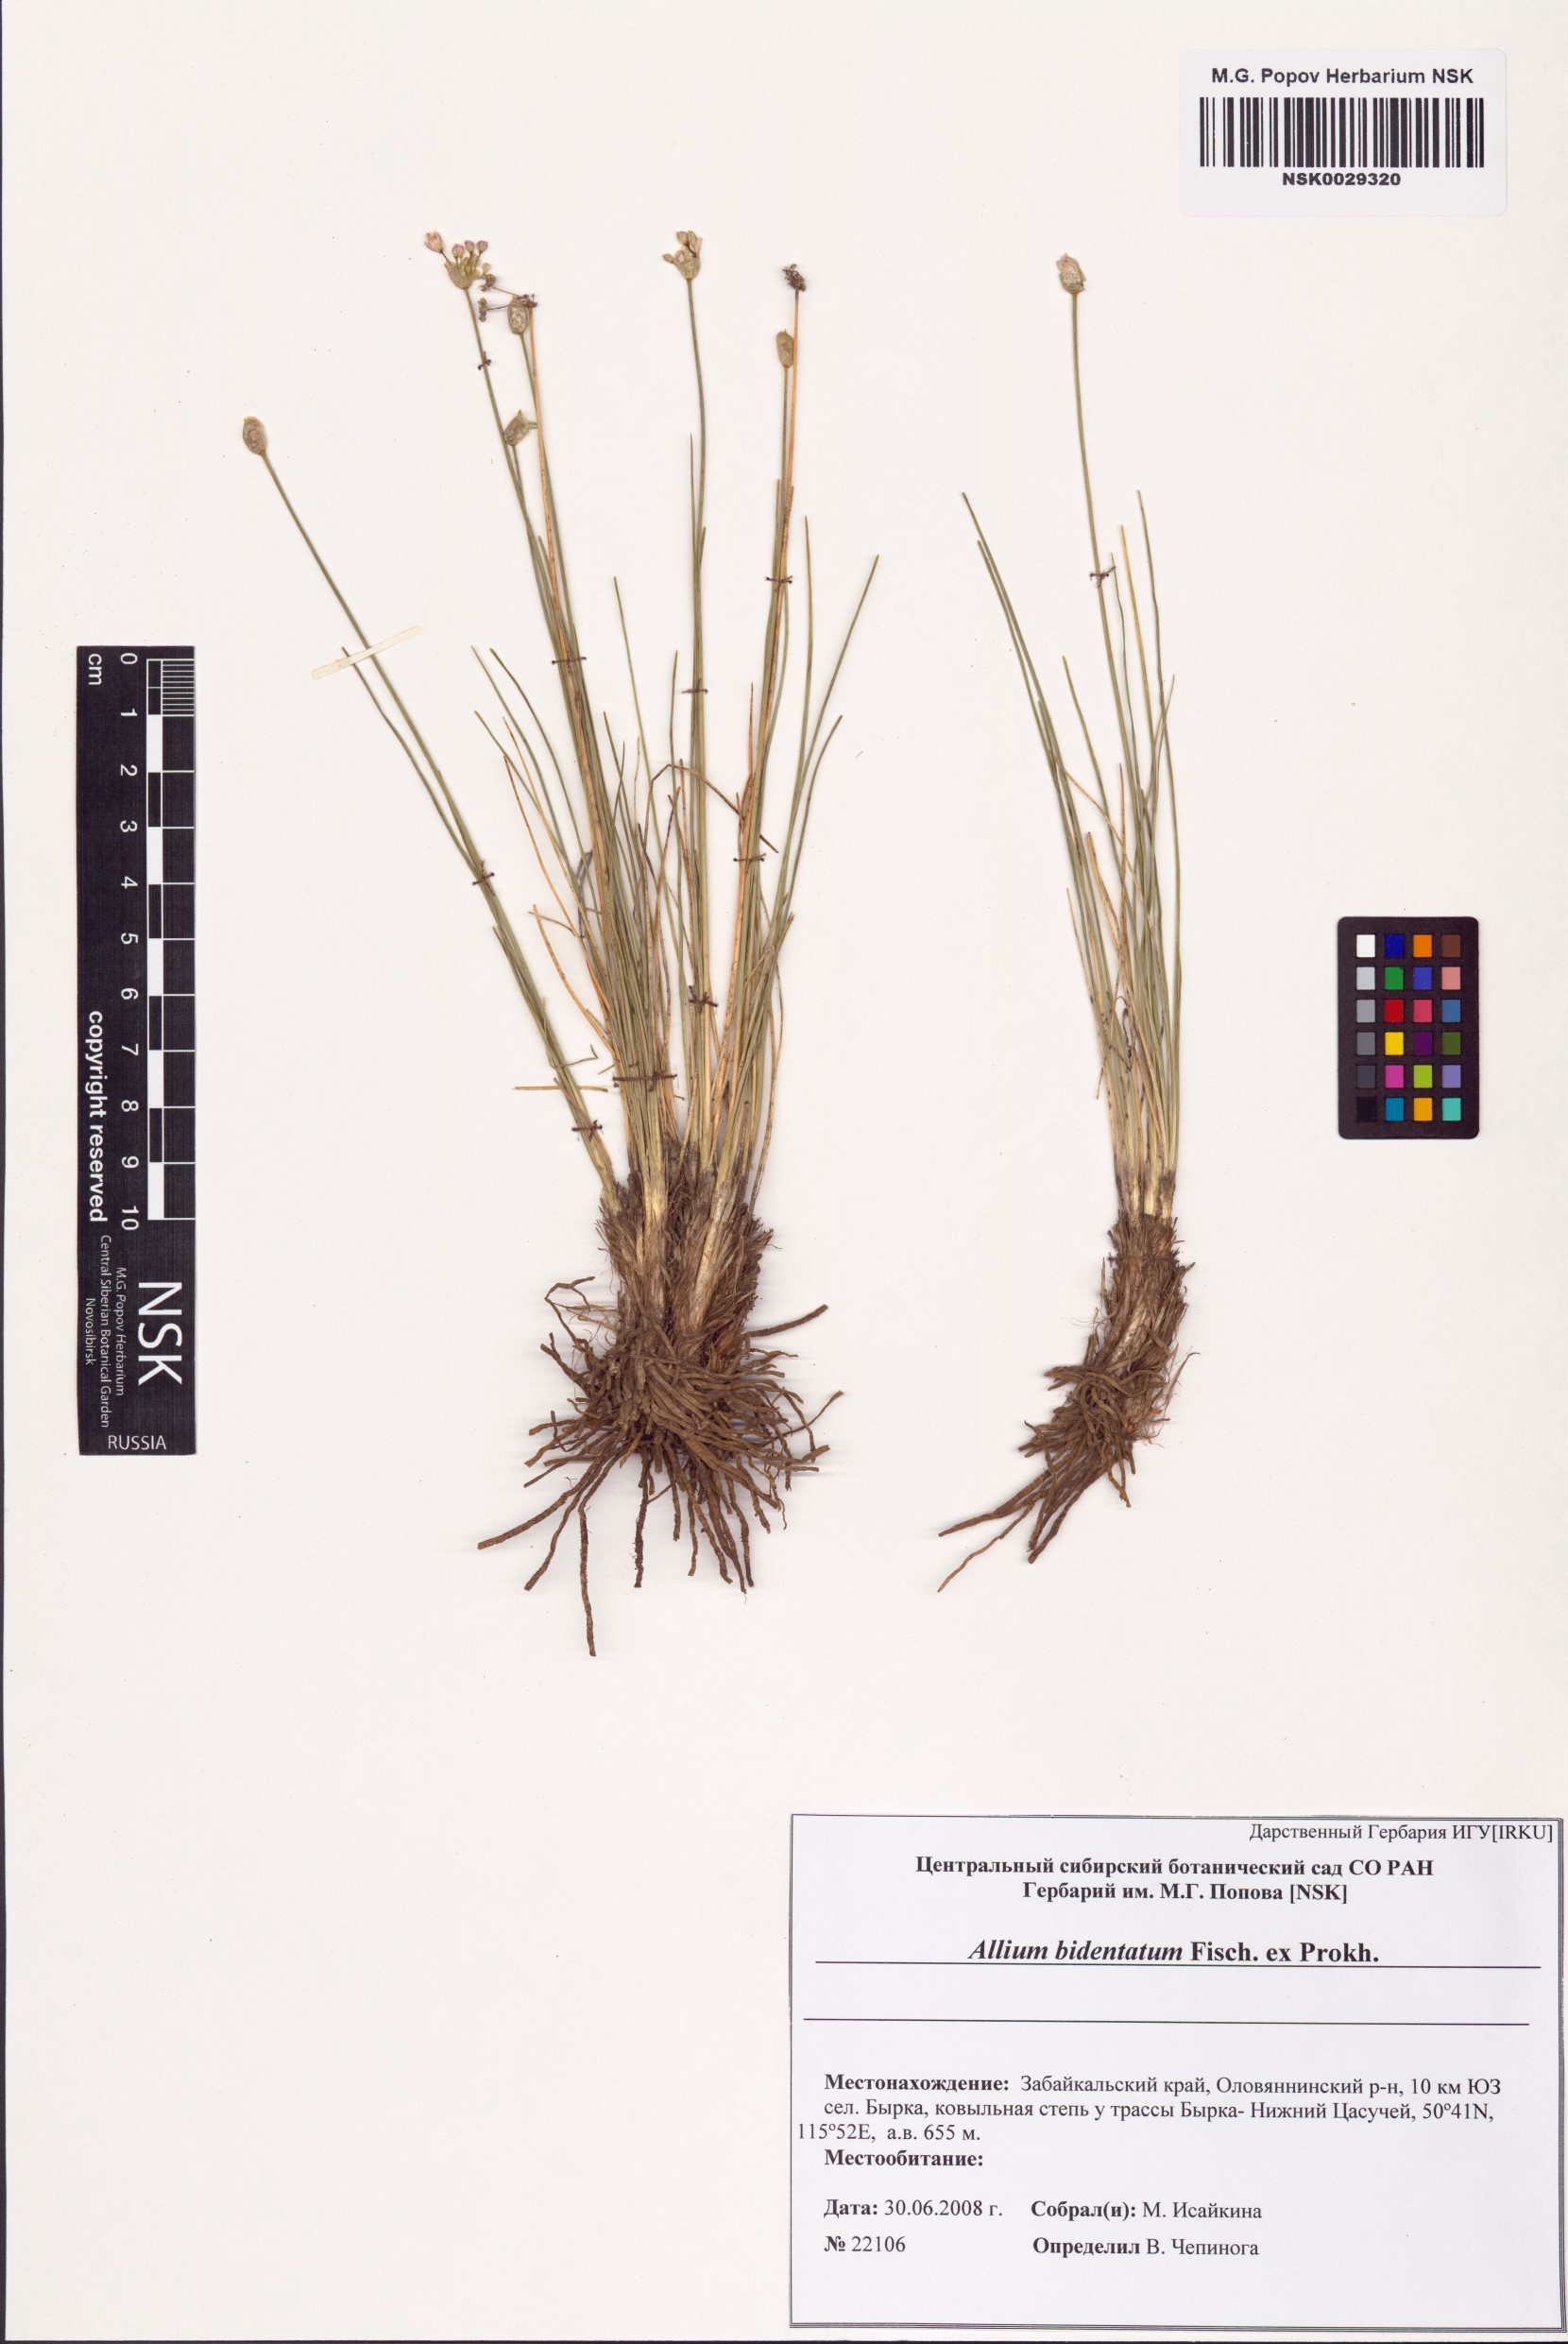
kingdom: Plantae
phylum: Tracheophyta
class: Liliopsida
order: Asparagales
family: Amaryllidaceae
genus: Allium
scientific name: Allium bidentatum
